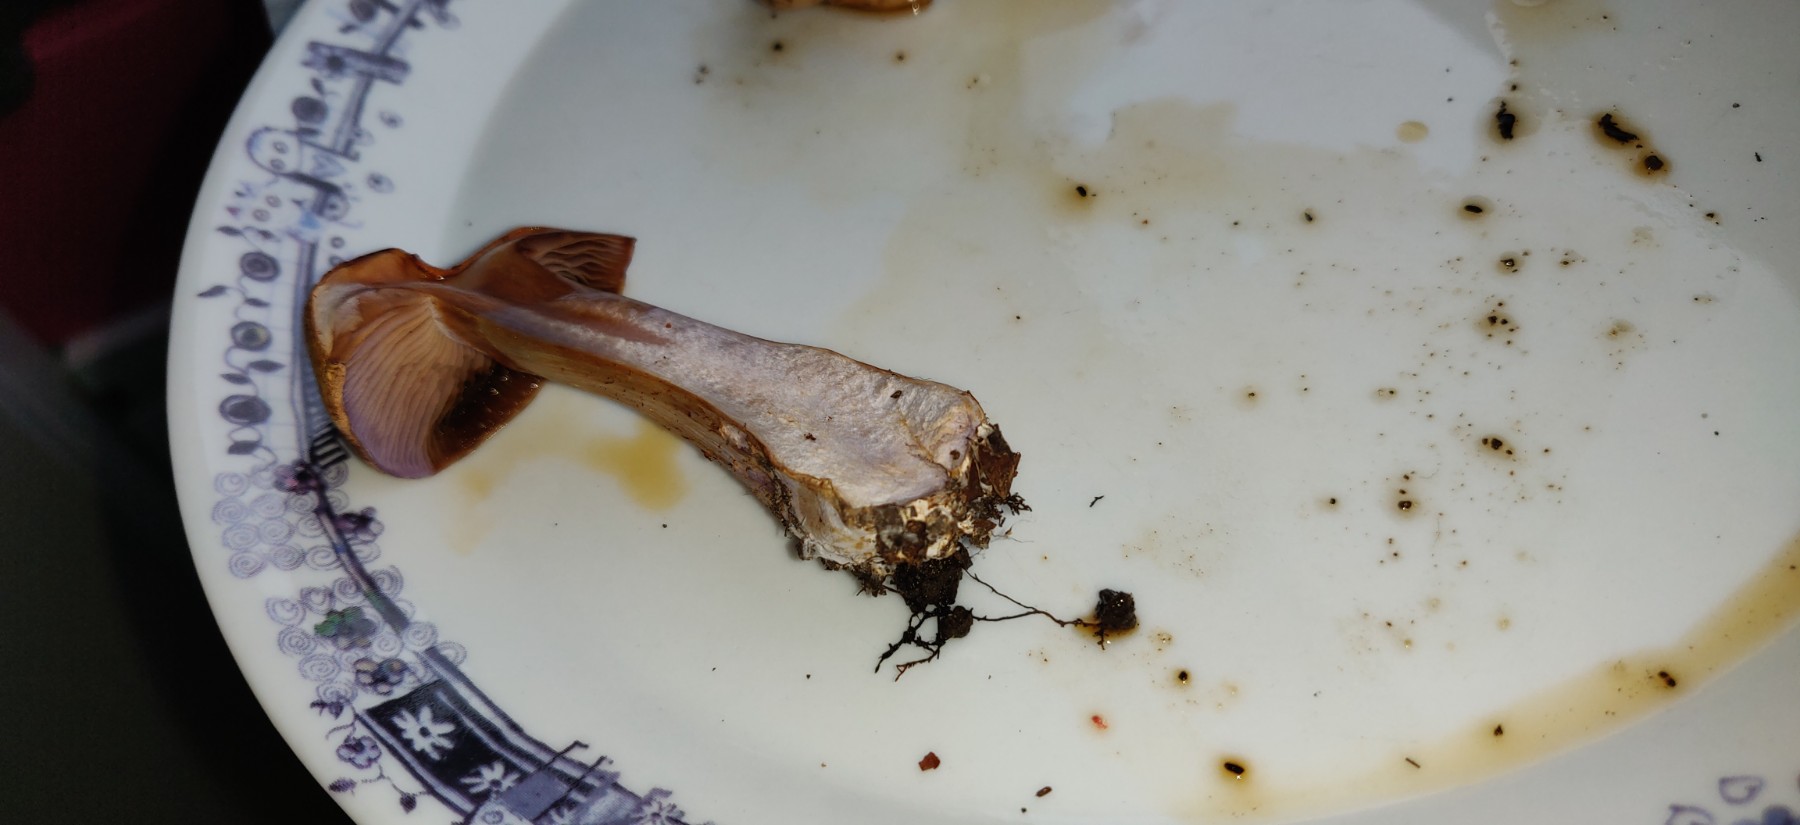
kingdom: Fungi
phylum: Basidiomycota
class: Agaricomycetes
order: Agaricales
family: Cortinariaceae
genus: Cortinarius
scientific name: Cortinarius largus
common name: violetrandet slørhat
